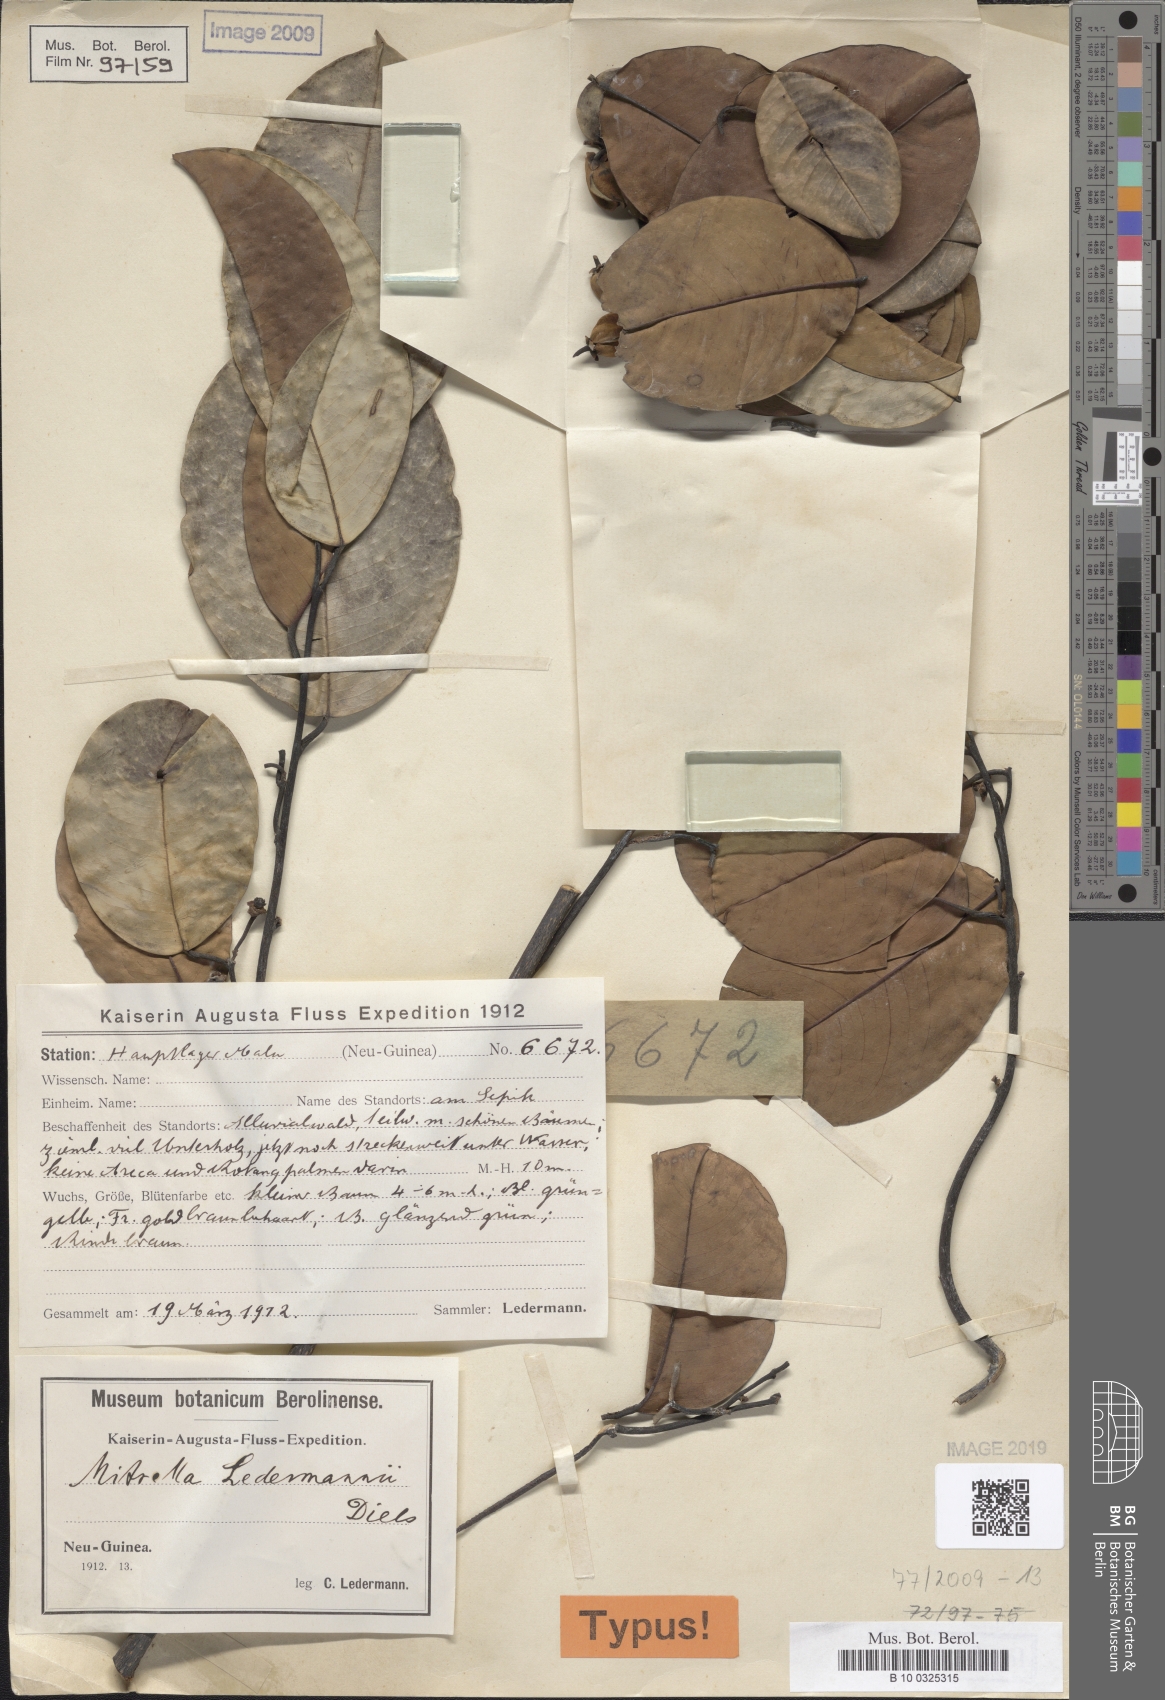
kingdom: Plantae
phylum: Tracheophyta
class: Magnoliopsida
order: Magnoliales
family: Annonaceae
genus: Mitrella
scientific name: Mitrella ledermannii
